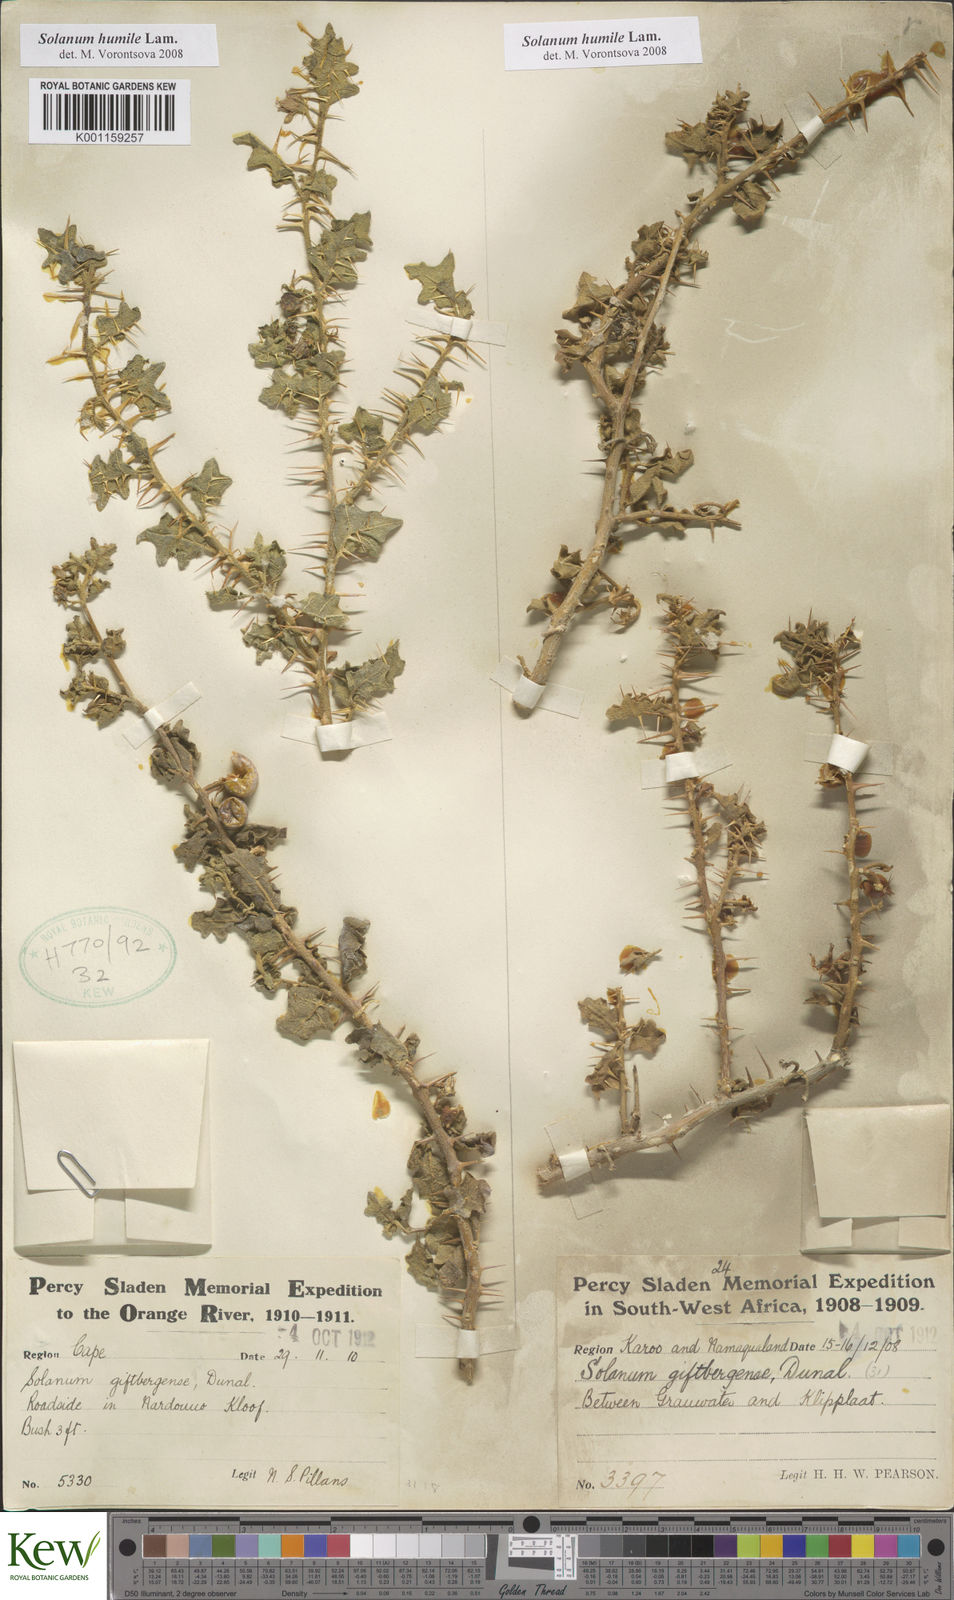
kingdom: Plantae
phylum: Tracheophyta
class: Magnoliopsida
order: Solanales
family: Solanaceae
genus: Solanum
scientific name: Solanum
